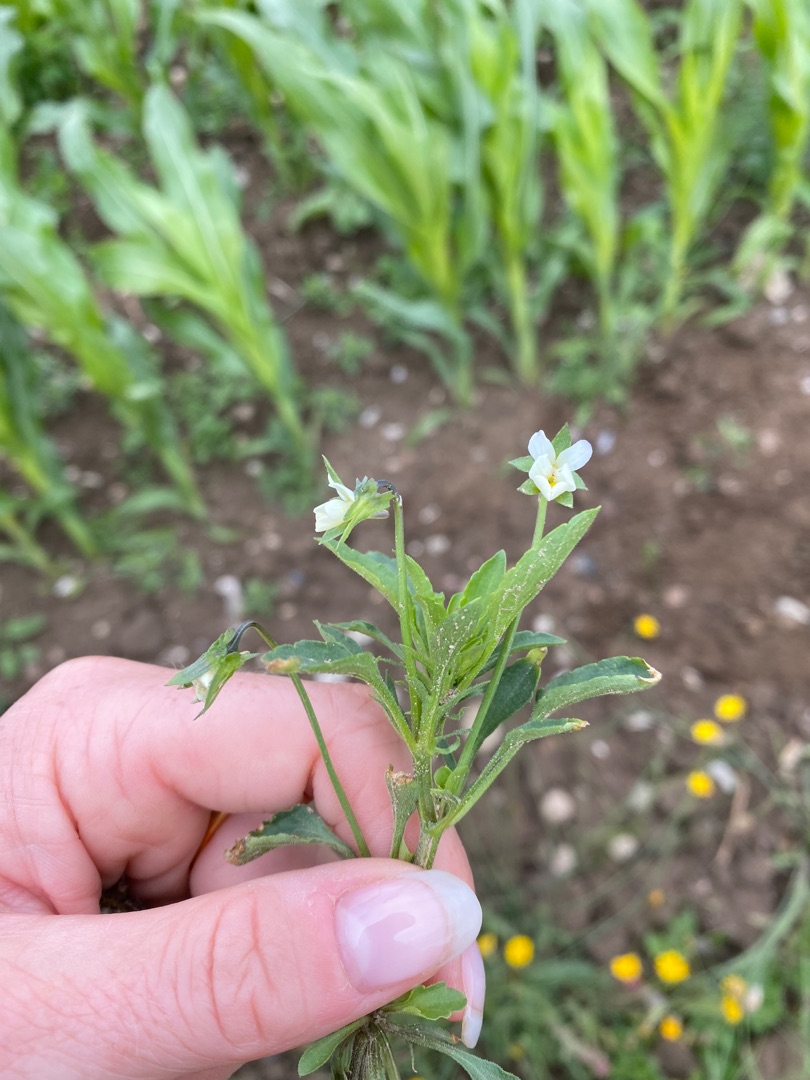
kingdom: Plantae
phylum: Tracheophyta
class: Magnoliopsida
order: Malpighiales
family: Violaceae
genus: Viola
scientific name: Viola arvensis
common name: Ager-stedmoderblomst
